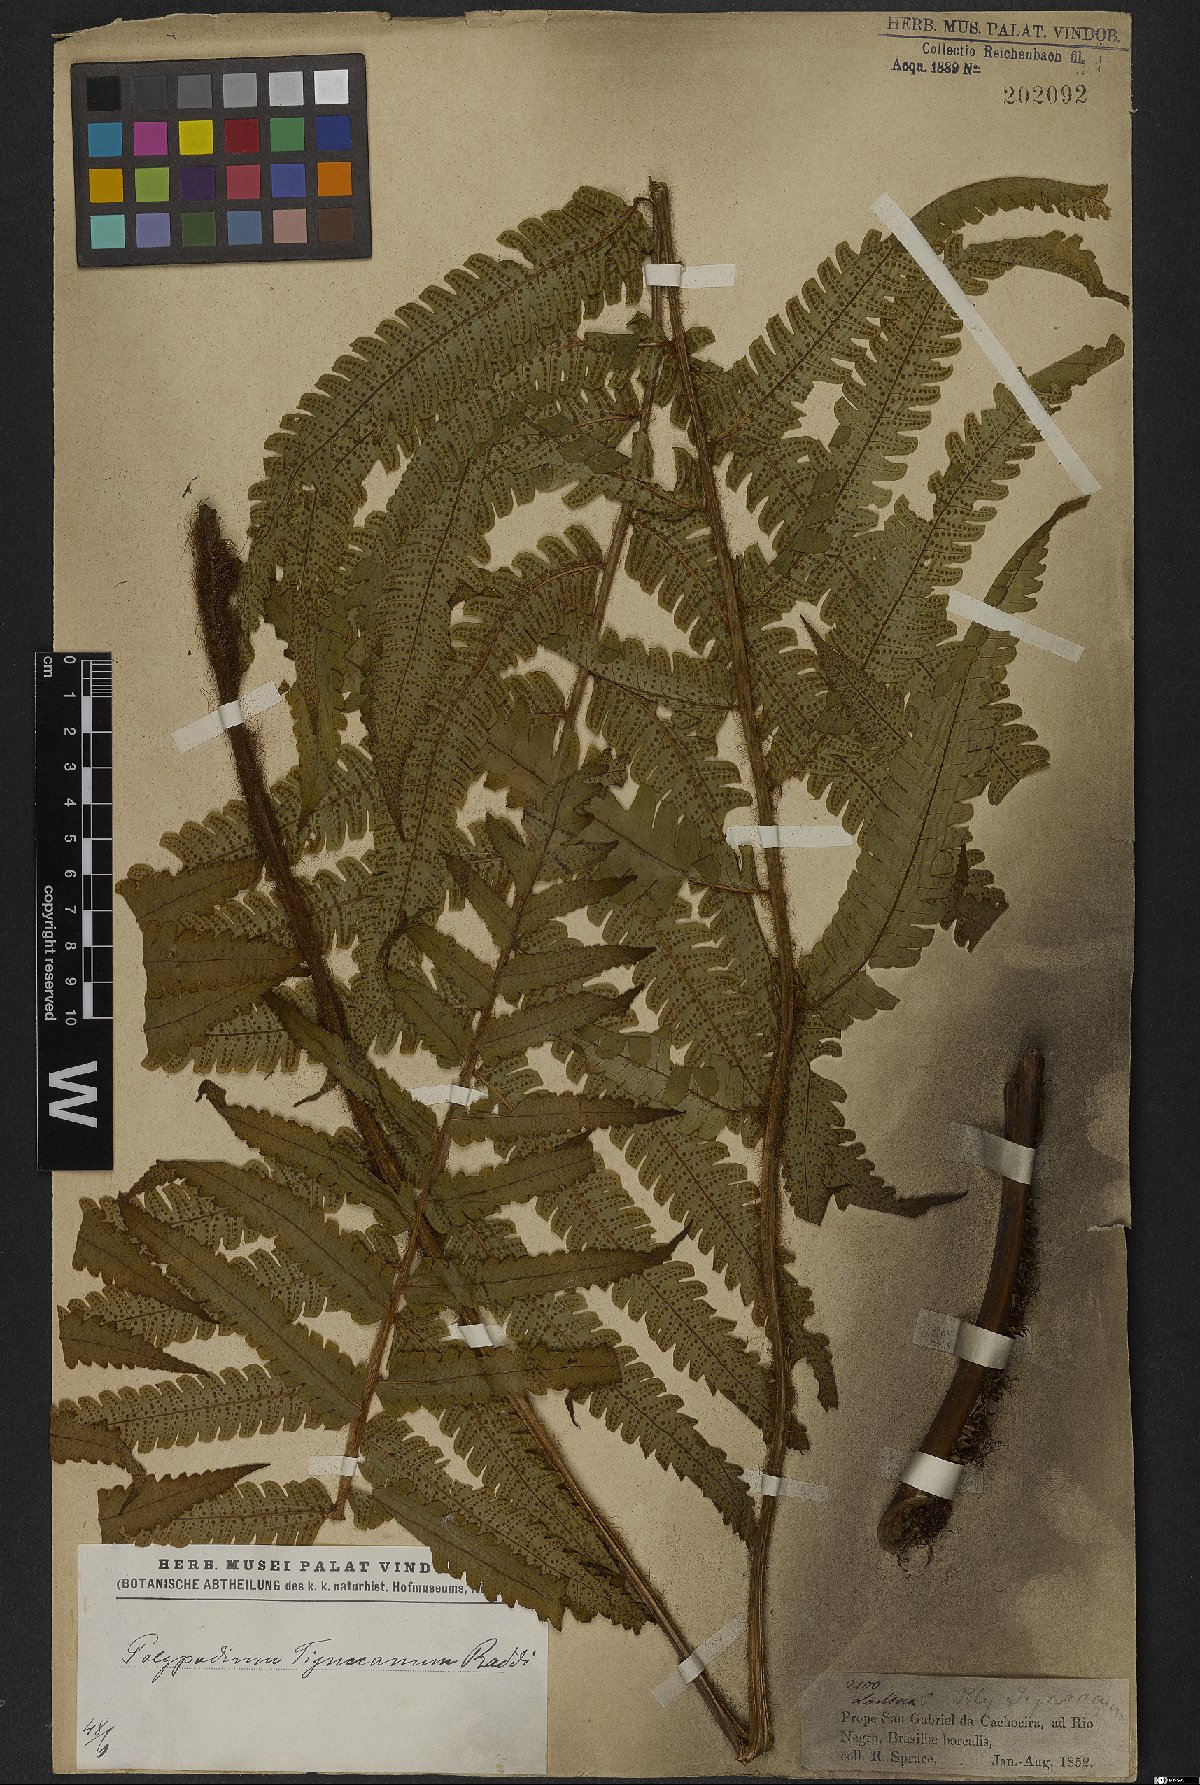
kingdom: Plantae
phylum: Tracheophyta
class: Polypodiopsida
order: Polypodiales
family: Dryopteridaceae
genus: Stigmatopteris
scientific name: Stigmatopteris tijuccana
